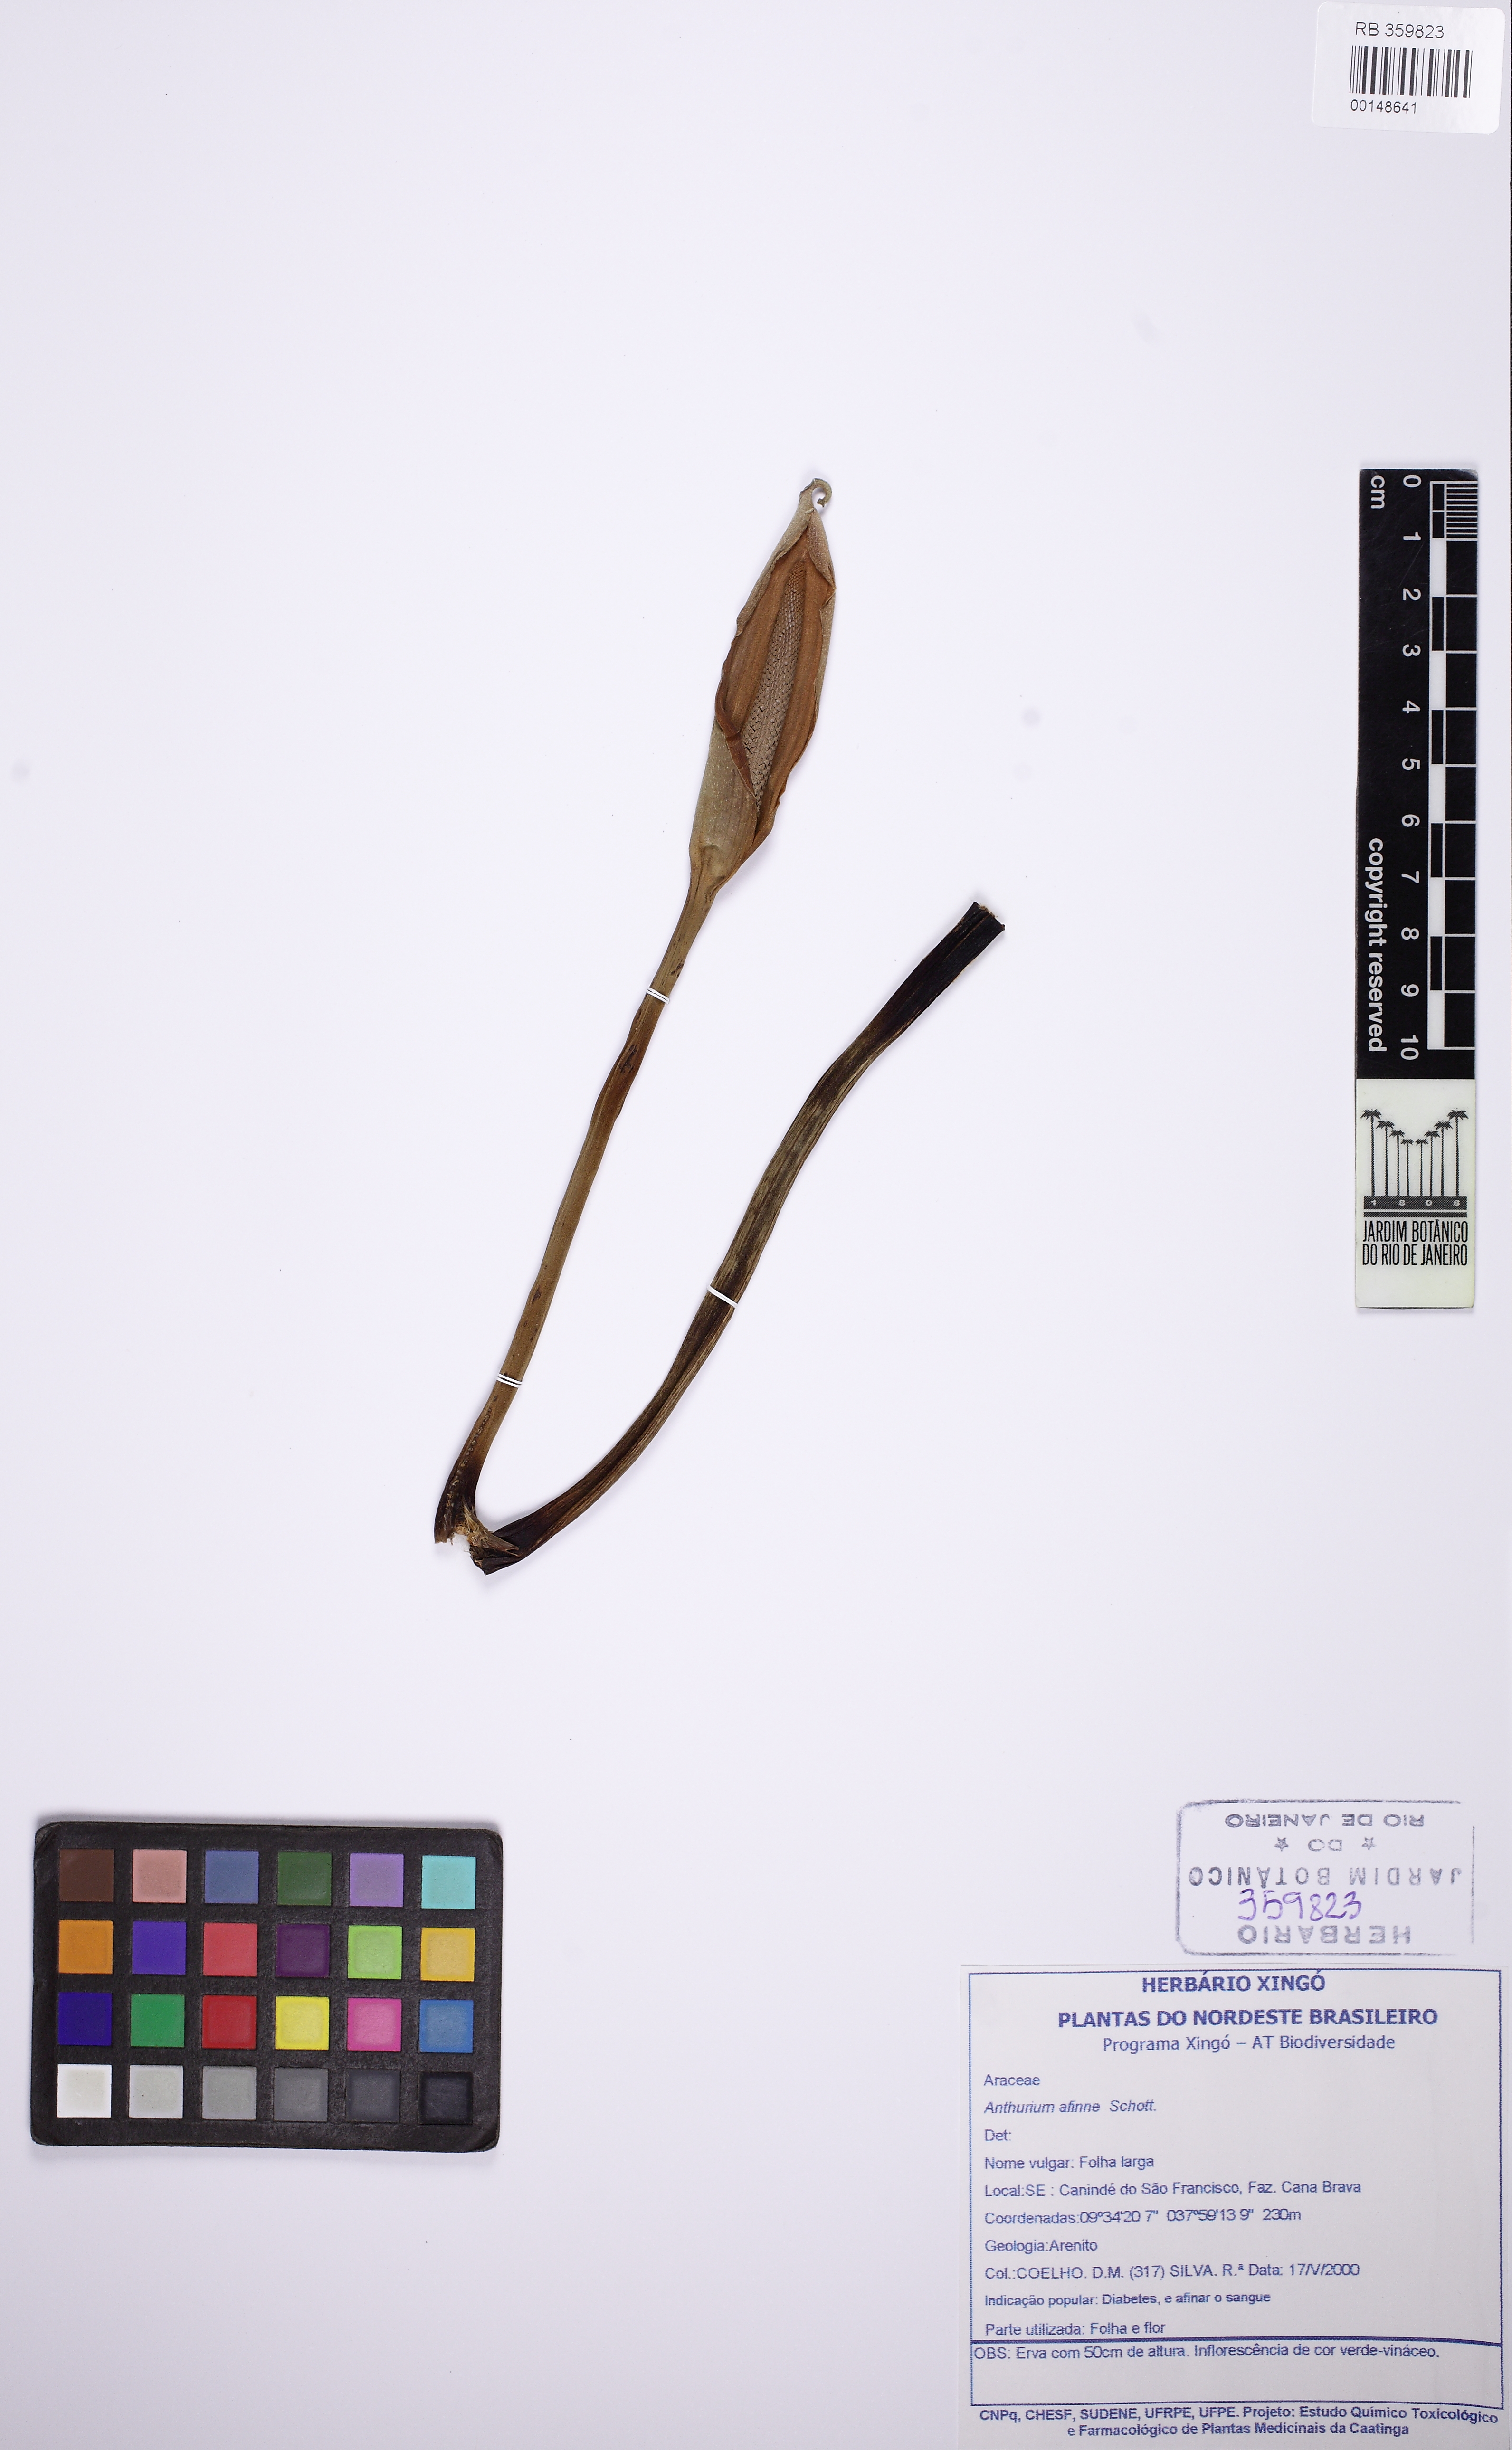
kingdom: Plantae
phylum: Tracheophyta
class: Liliopsida
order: Alismatales
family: Araceae
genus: Anthurium
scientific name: Anthurium affine
